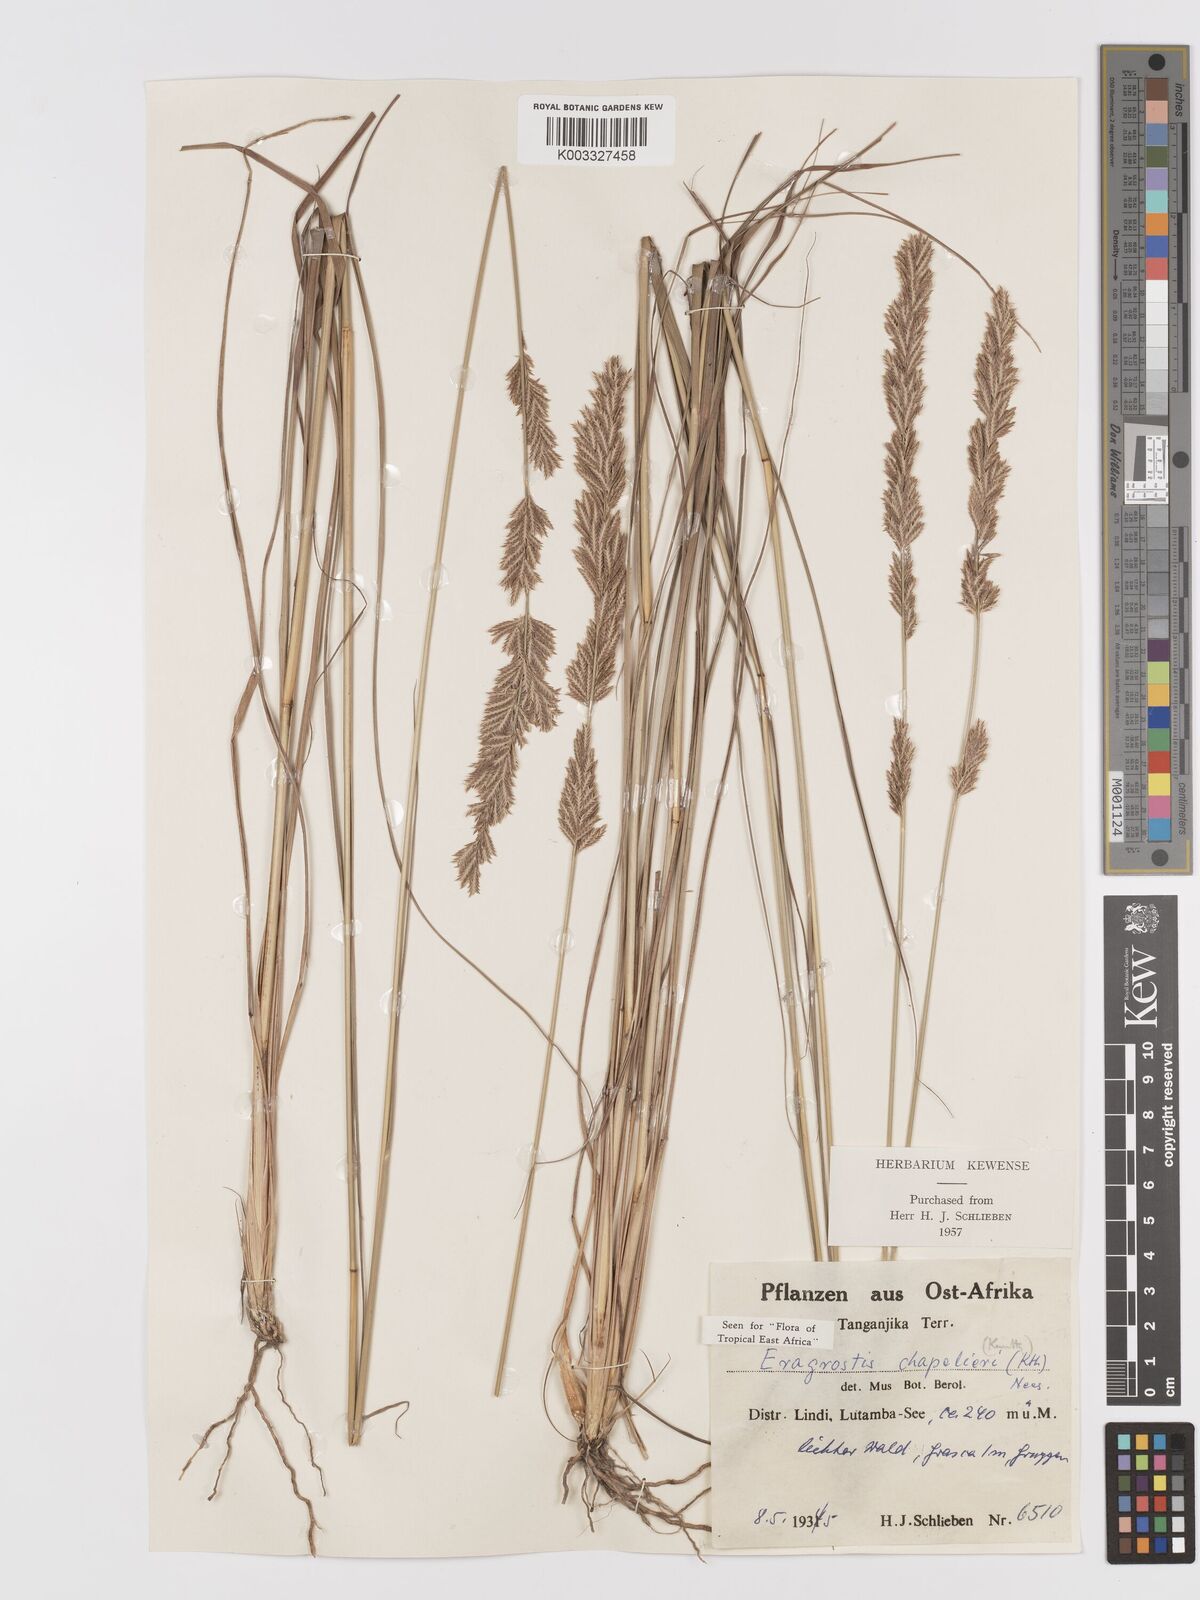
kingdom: Plantae
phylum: Tracheophyta
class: Liliopsida
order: Poales
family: Poaceae
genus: Eragrostis
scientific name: Eragrostis chapelieri
